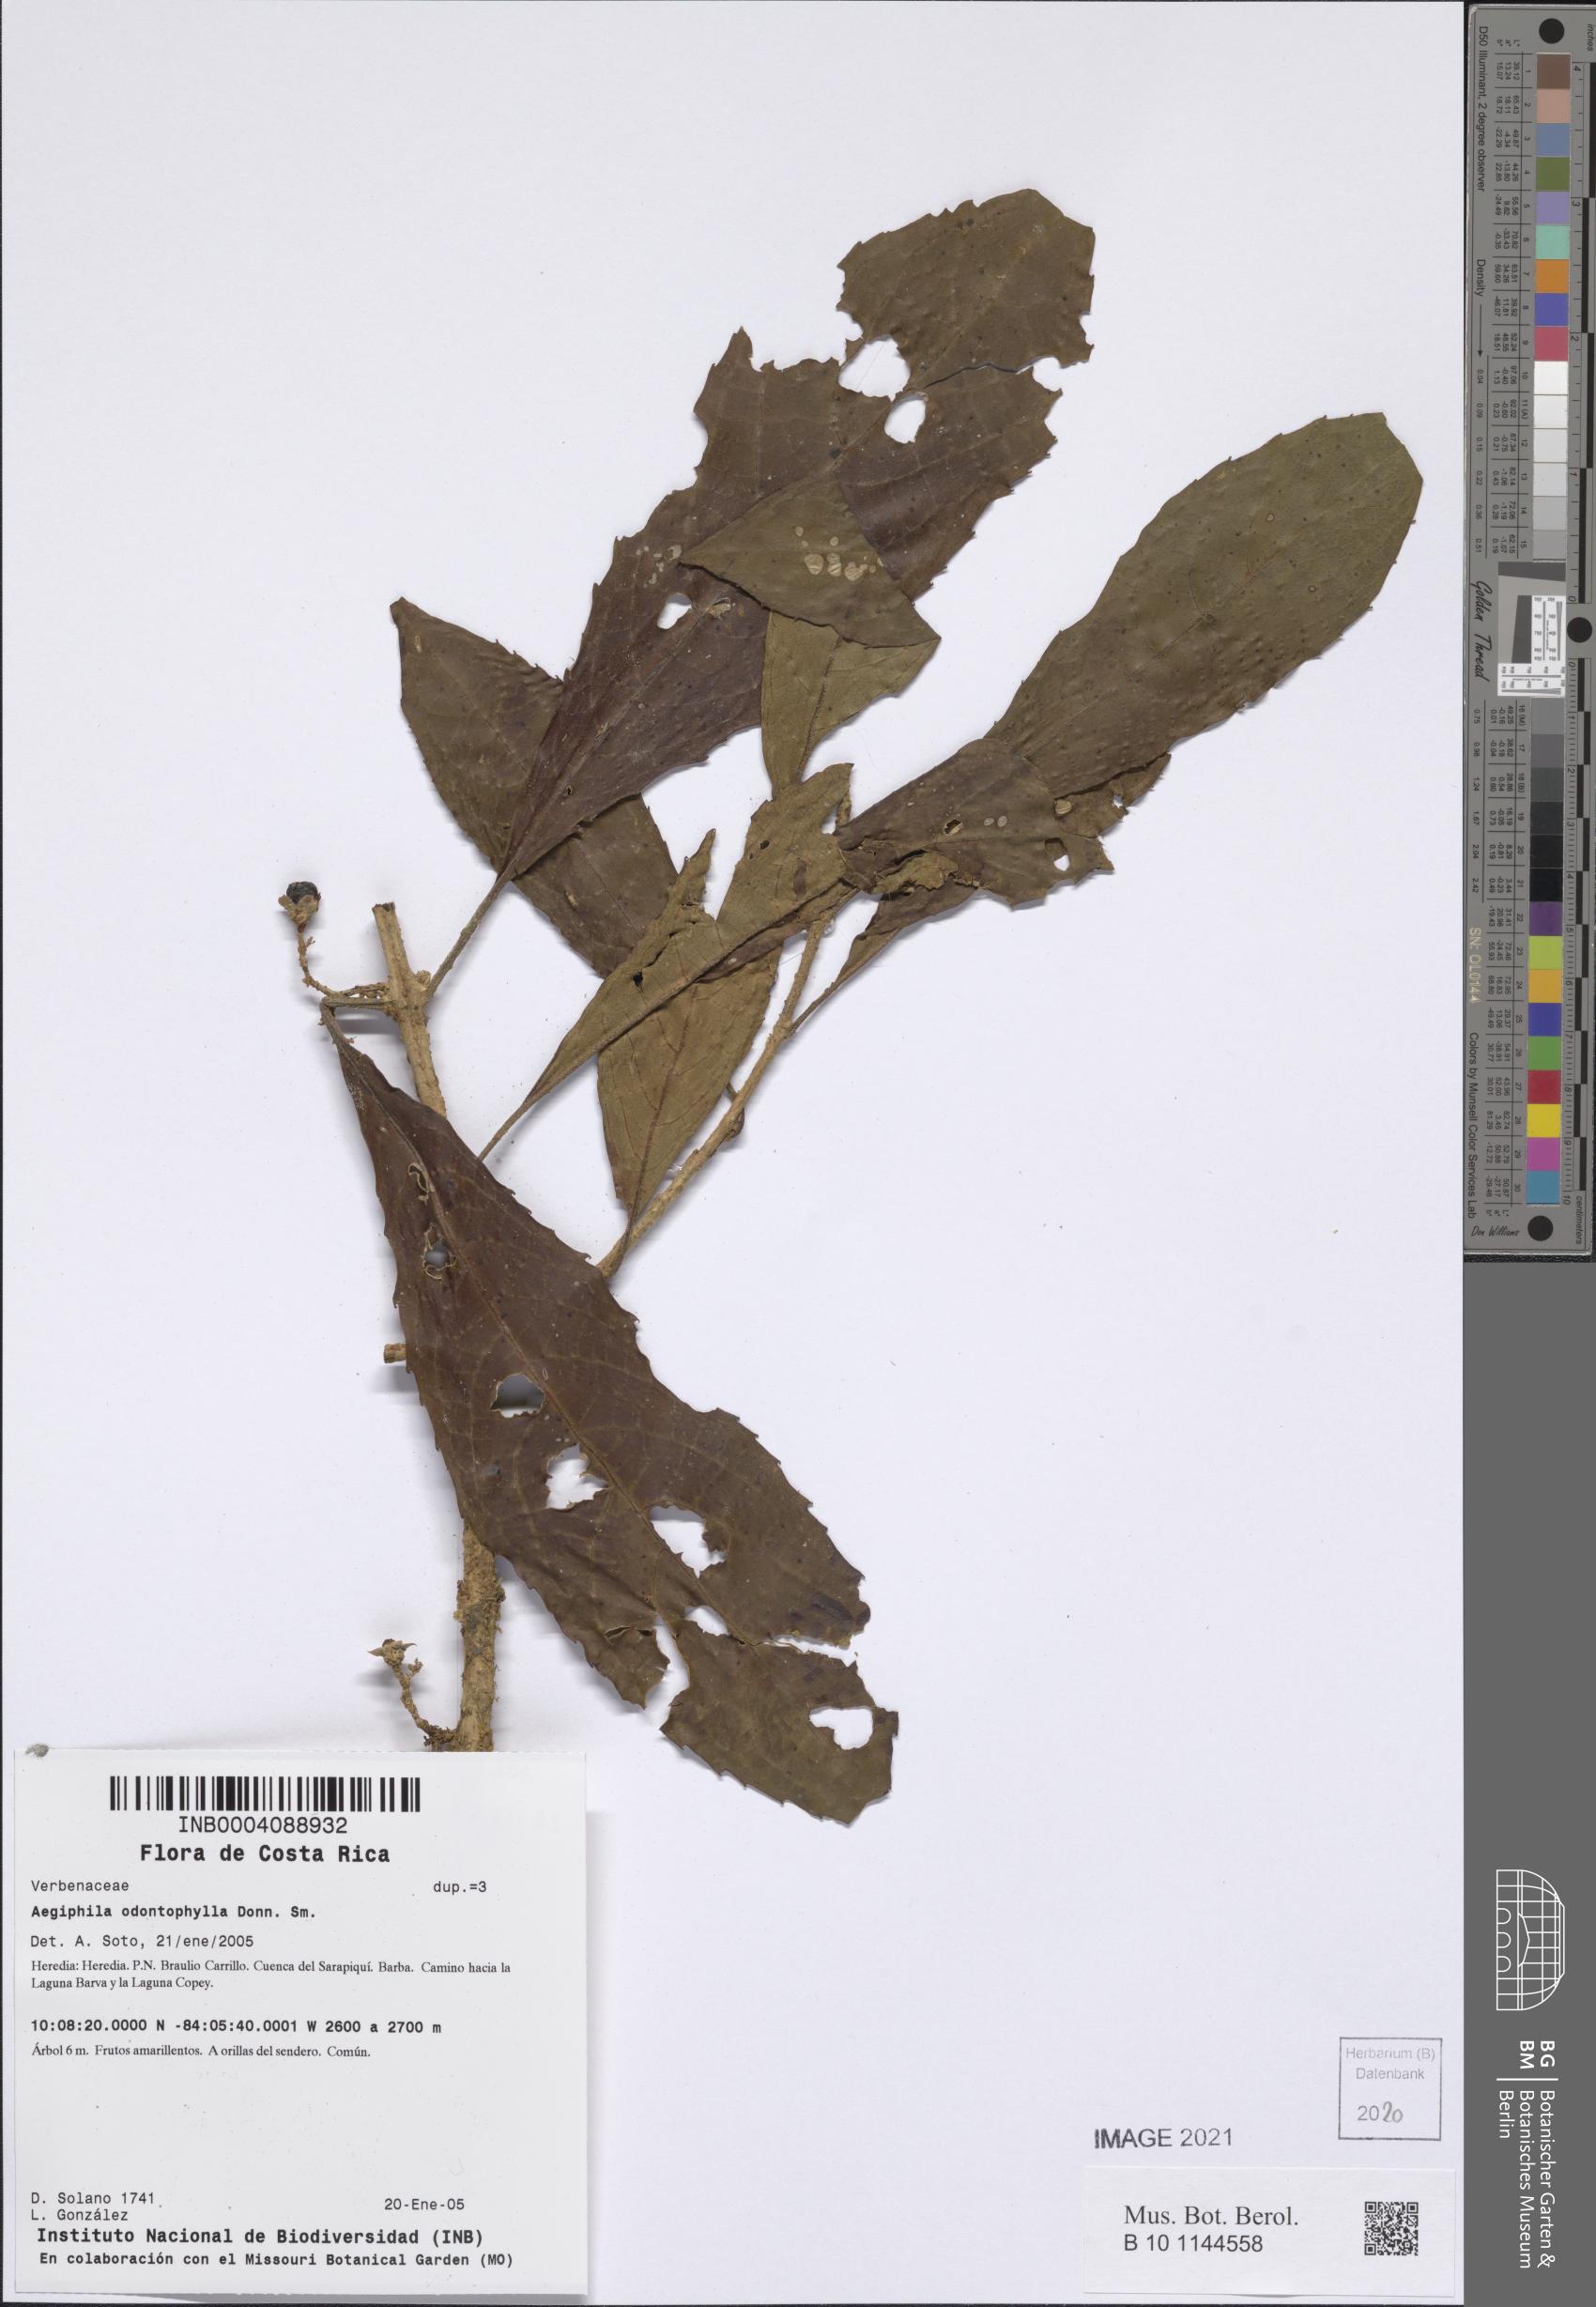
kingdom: Plantae
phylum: Tracheophyta
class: Magnoliopsida
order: Lamiales
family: Lamiaceae
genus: Aegiphila
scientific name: Aegiphila odontophylla
